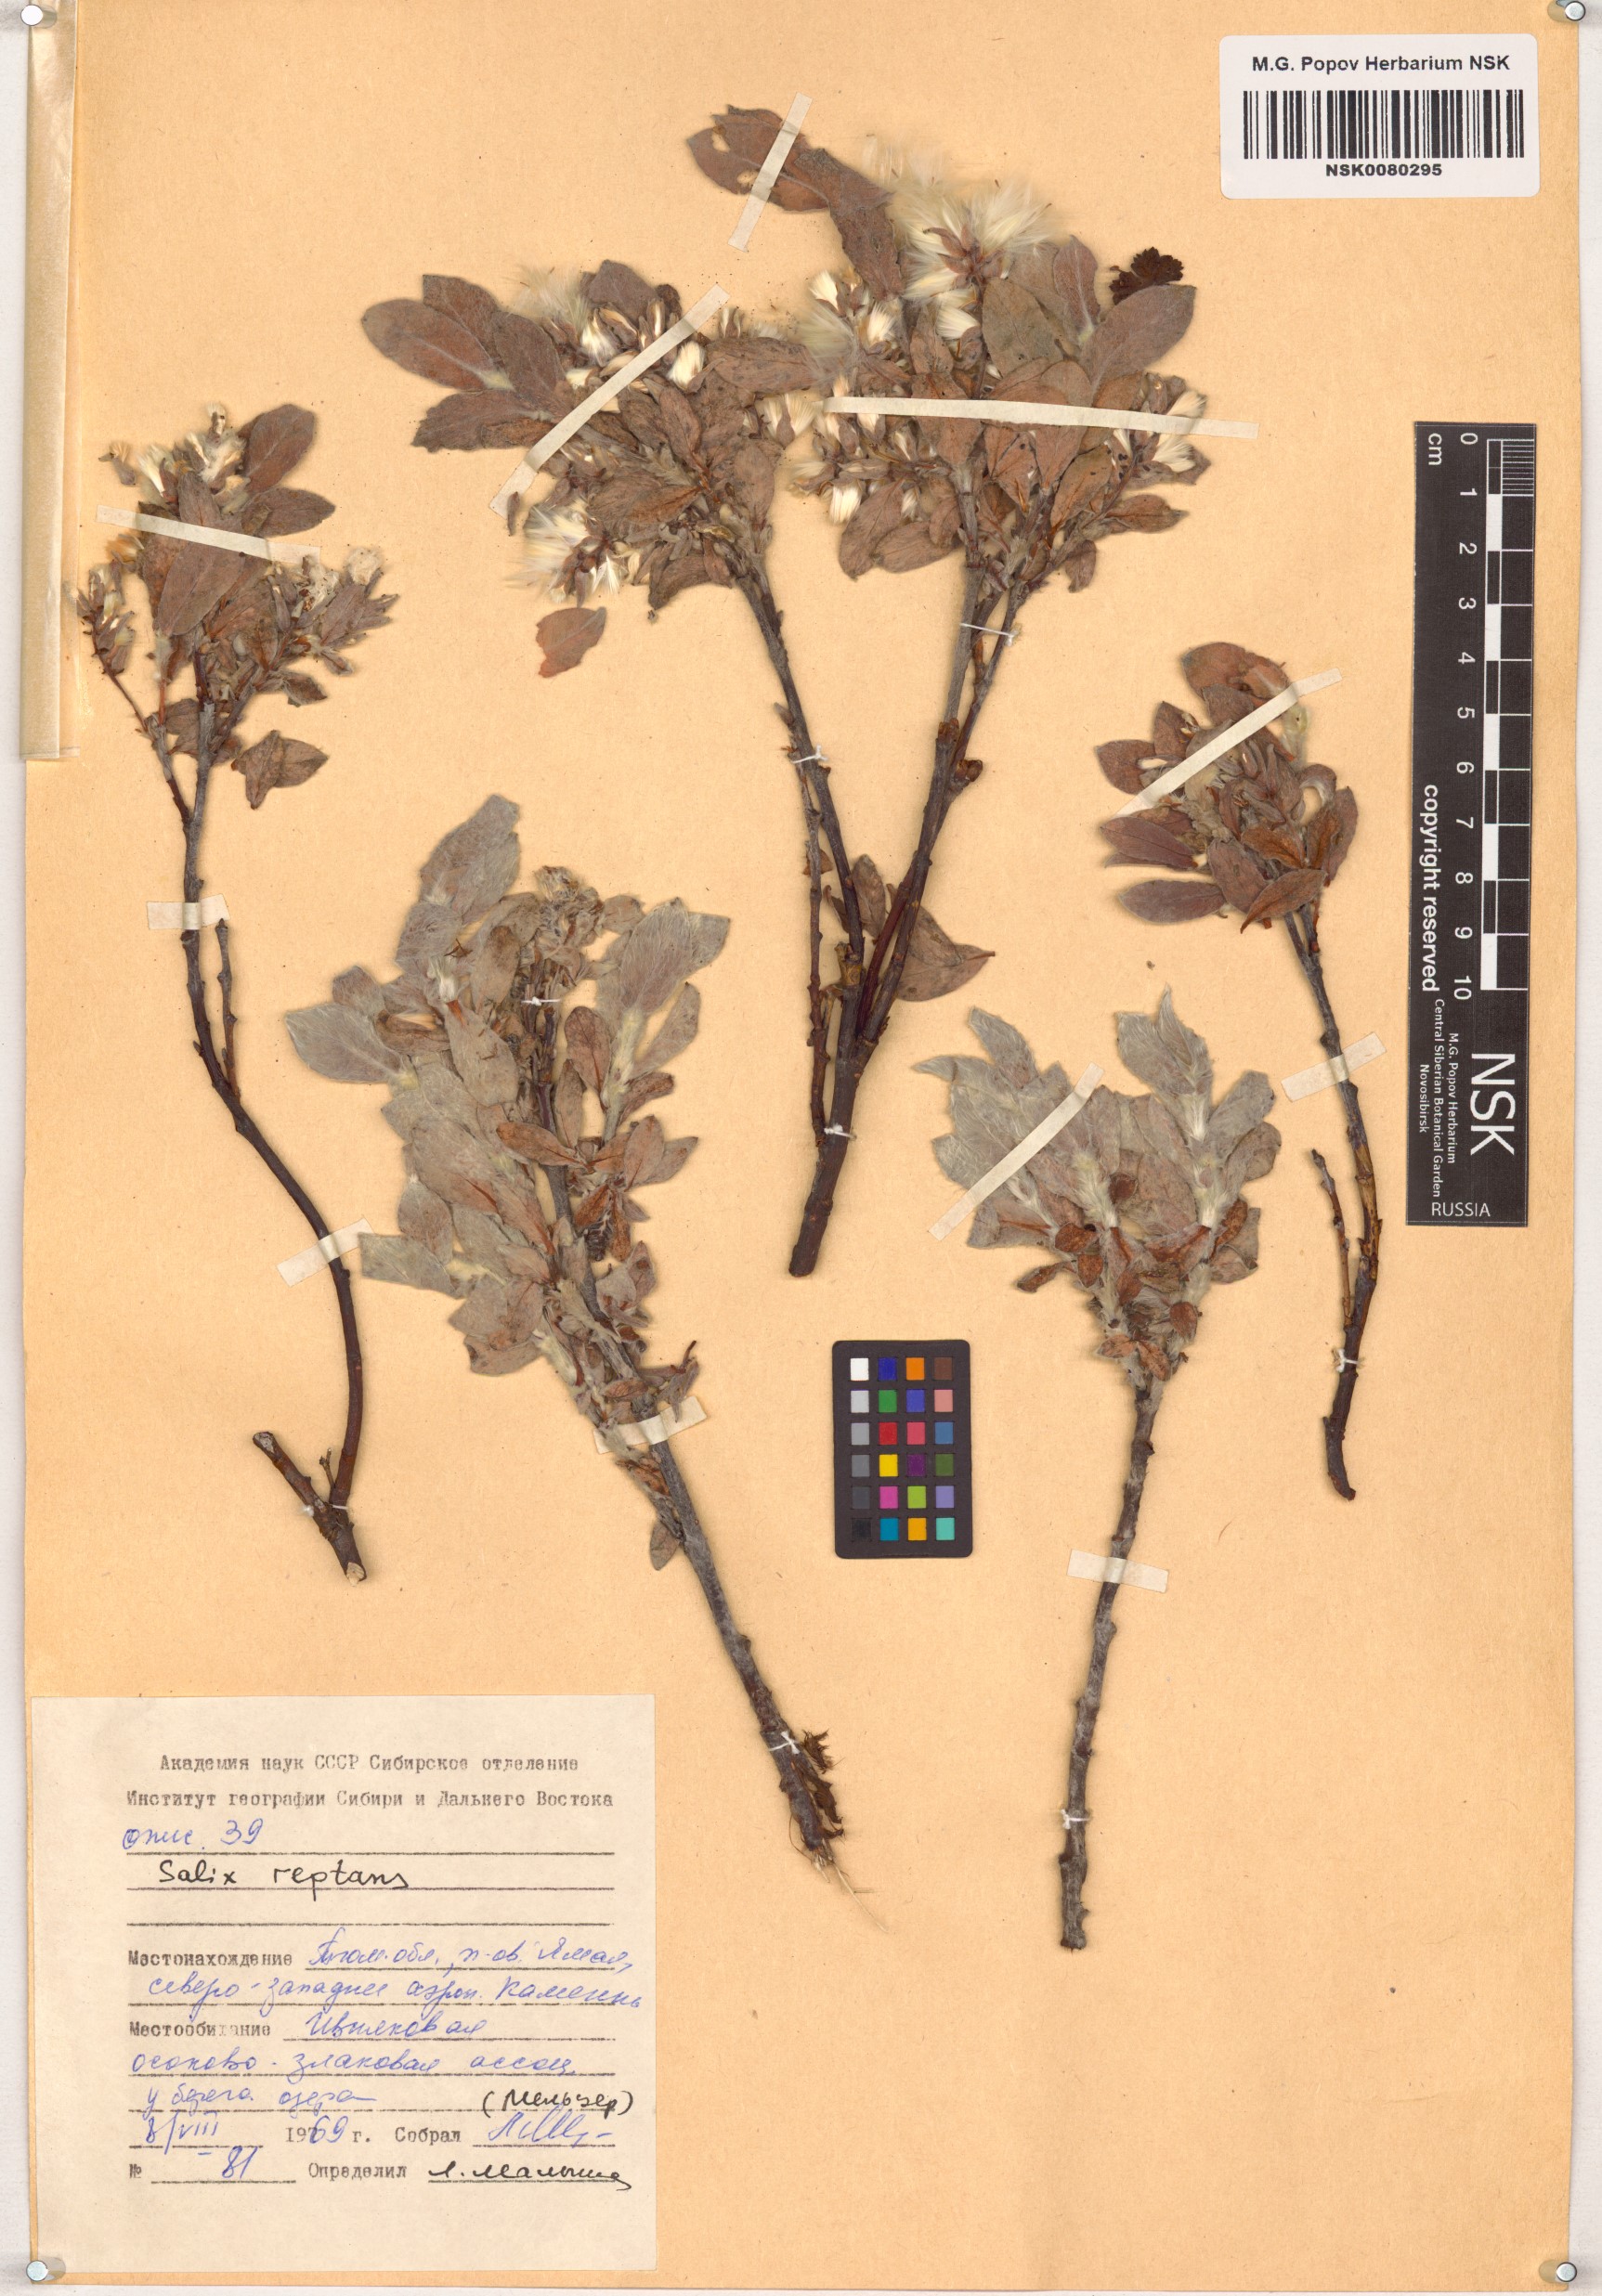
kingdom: Plantae
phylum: Tracheophyta
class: Magnoliopsida
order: Malpighiales
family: Salicaceae
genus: Salix
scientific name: Salix reptans
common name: Arctic creeping willow
